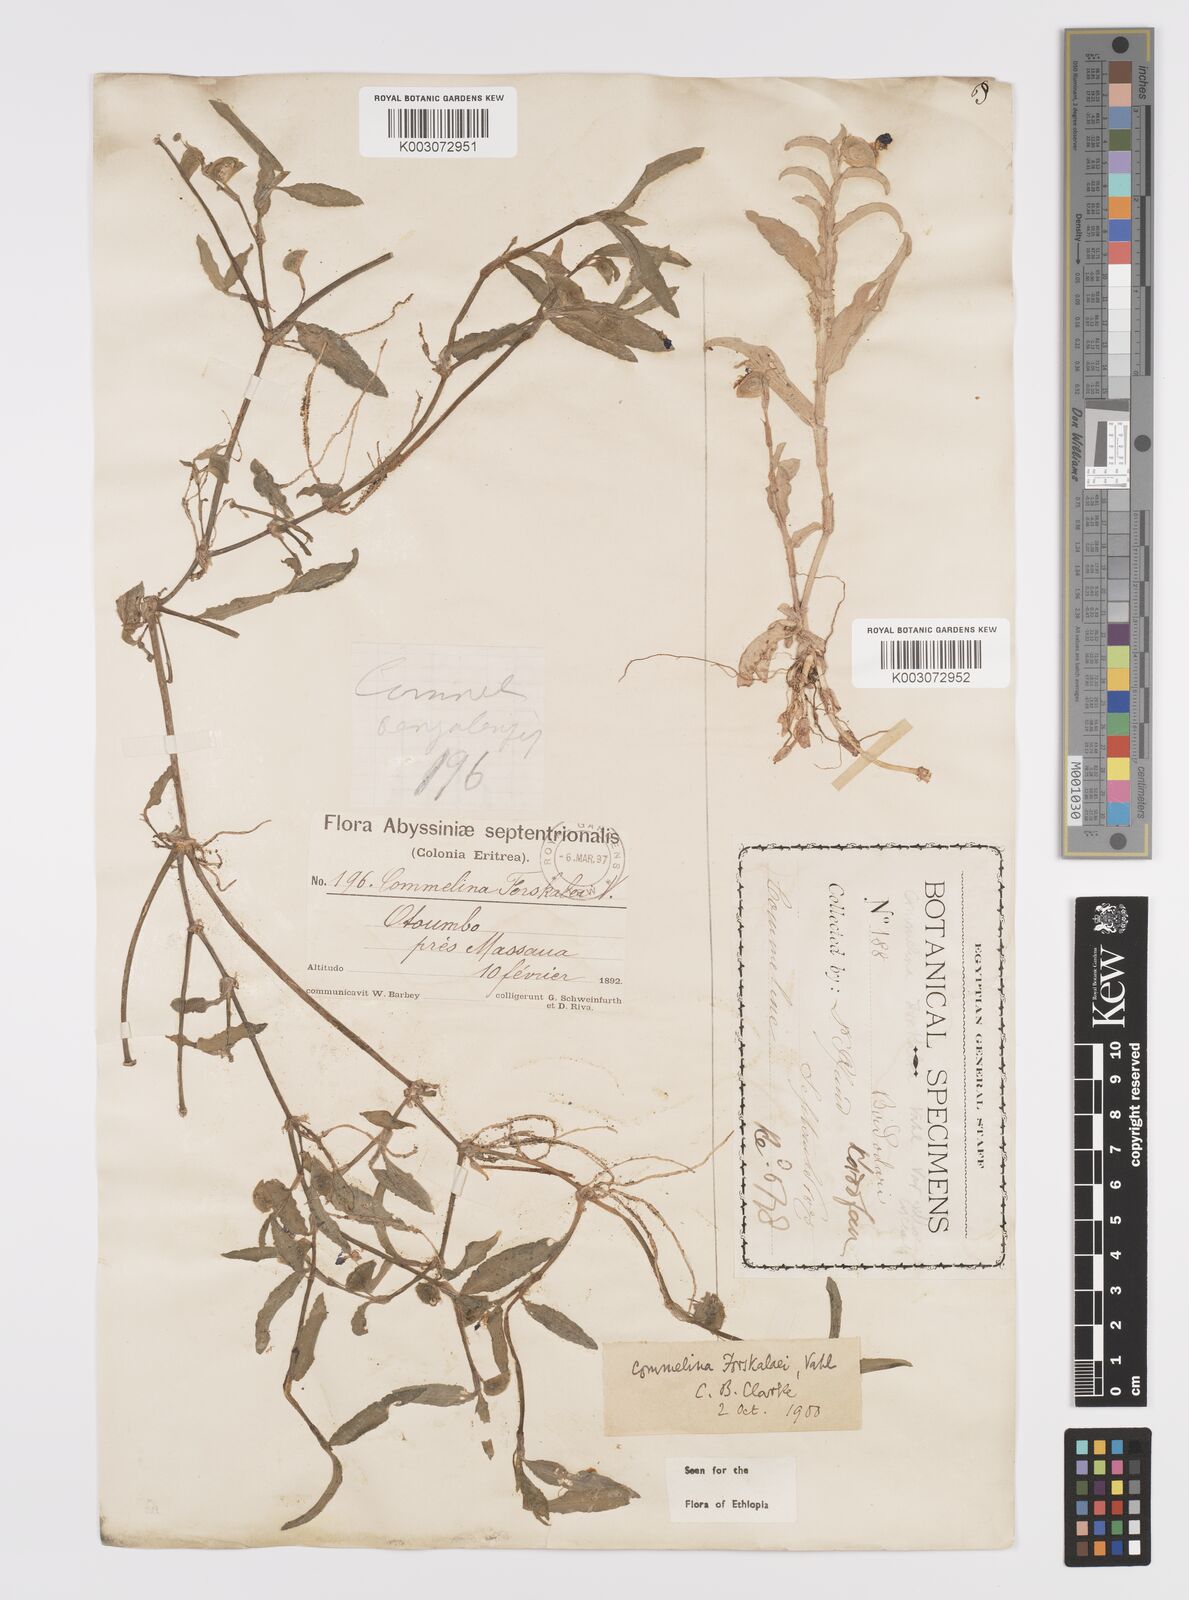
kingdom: Plantae
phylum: Tracheophyta
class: Liliopsida
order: Commelinales
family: Commelinaceae
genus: Commelina
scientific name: Commelina forskaolii
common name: Rat's ear
